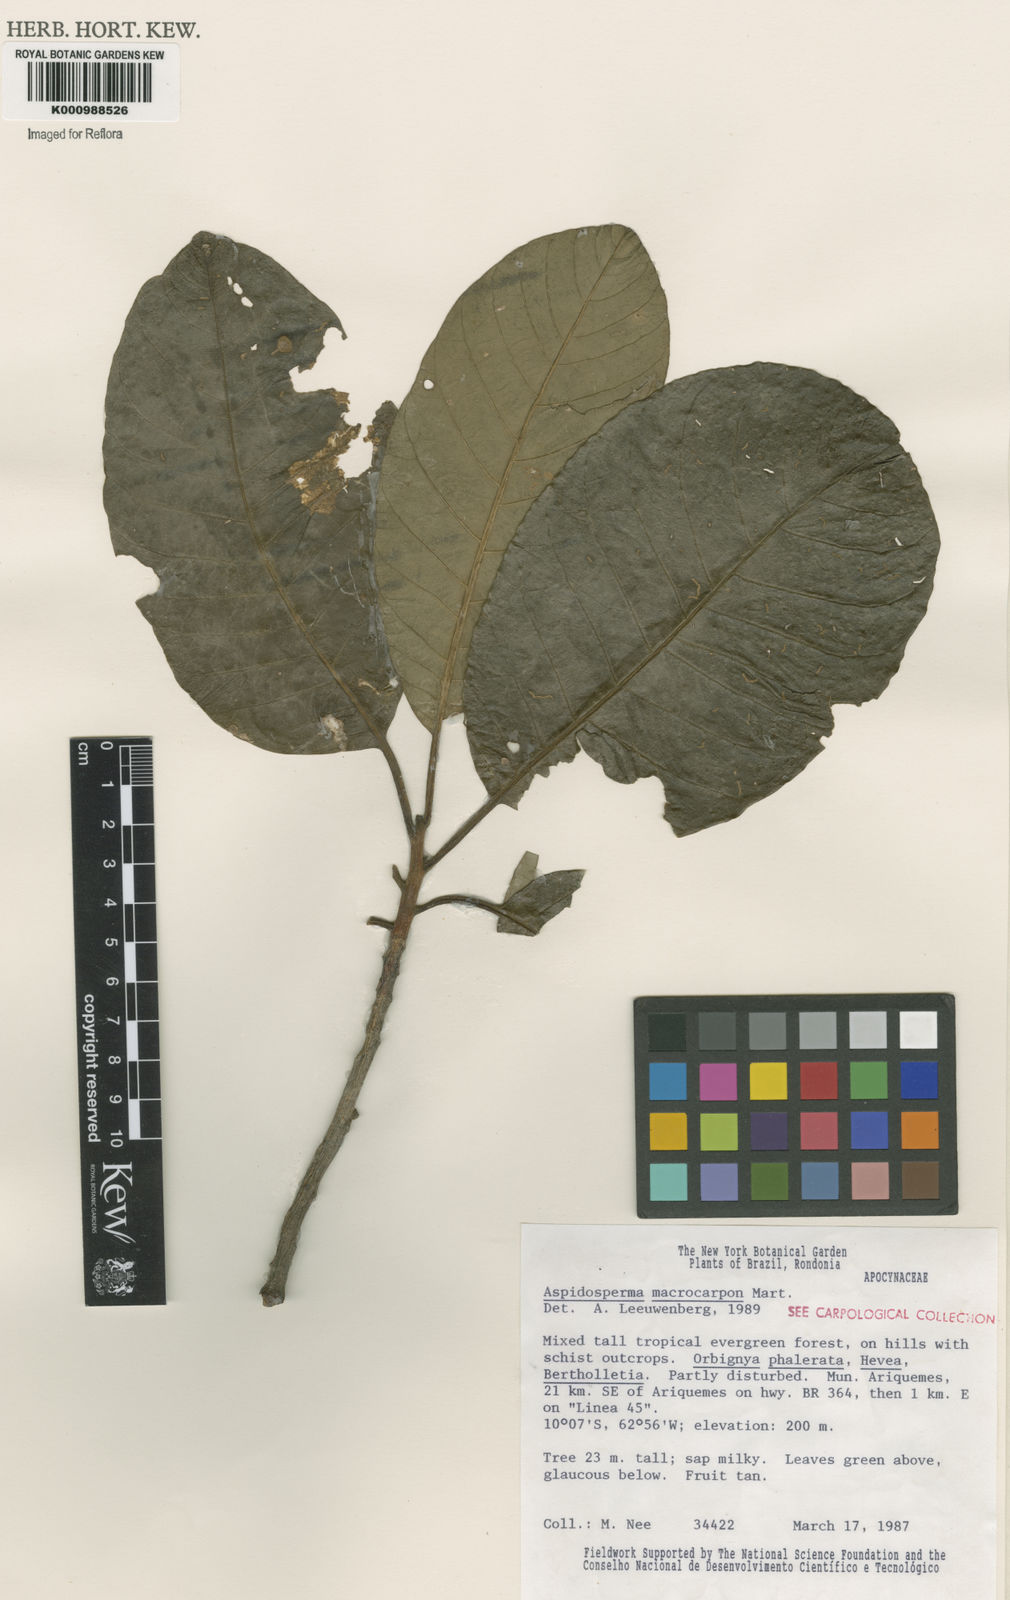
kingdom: Plantae
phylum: Tracheophyta
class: Magnoliopsida
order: Gentianales
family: Apocynaceae
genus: Aspidosperma
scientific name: Aspidosperma macrocarpon
